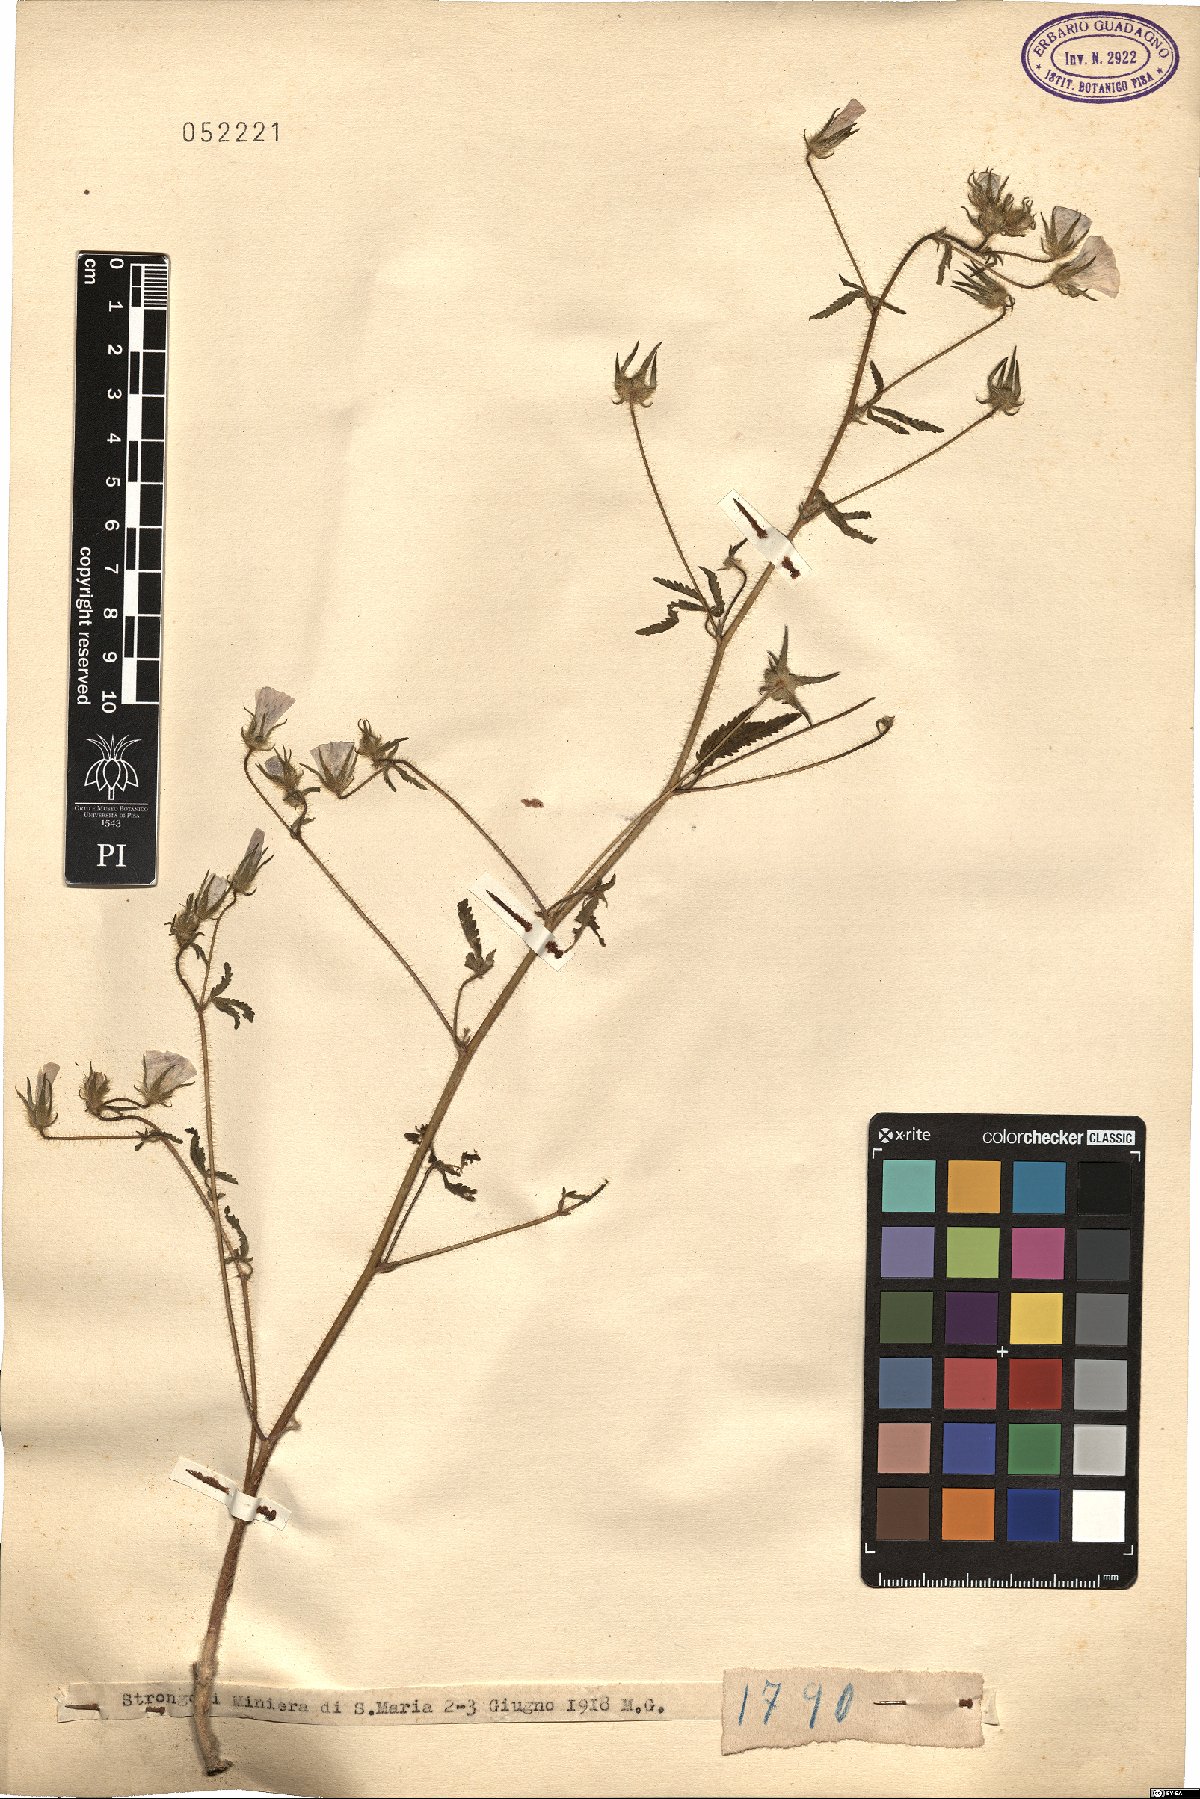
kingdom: Plantae
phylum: Tracheophyta
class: Magnoliopsida
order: Malvales
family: Malvaceae
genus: Althaea
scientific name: Althaea
